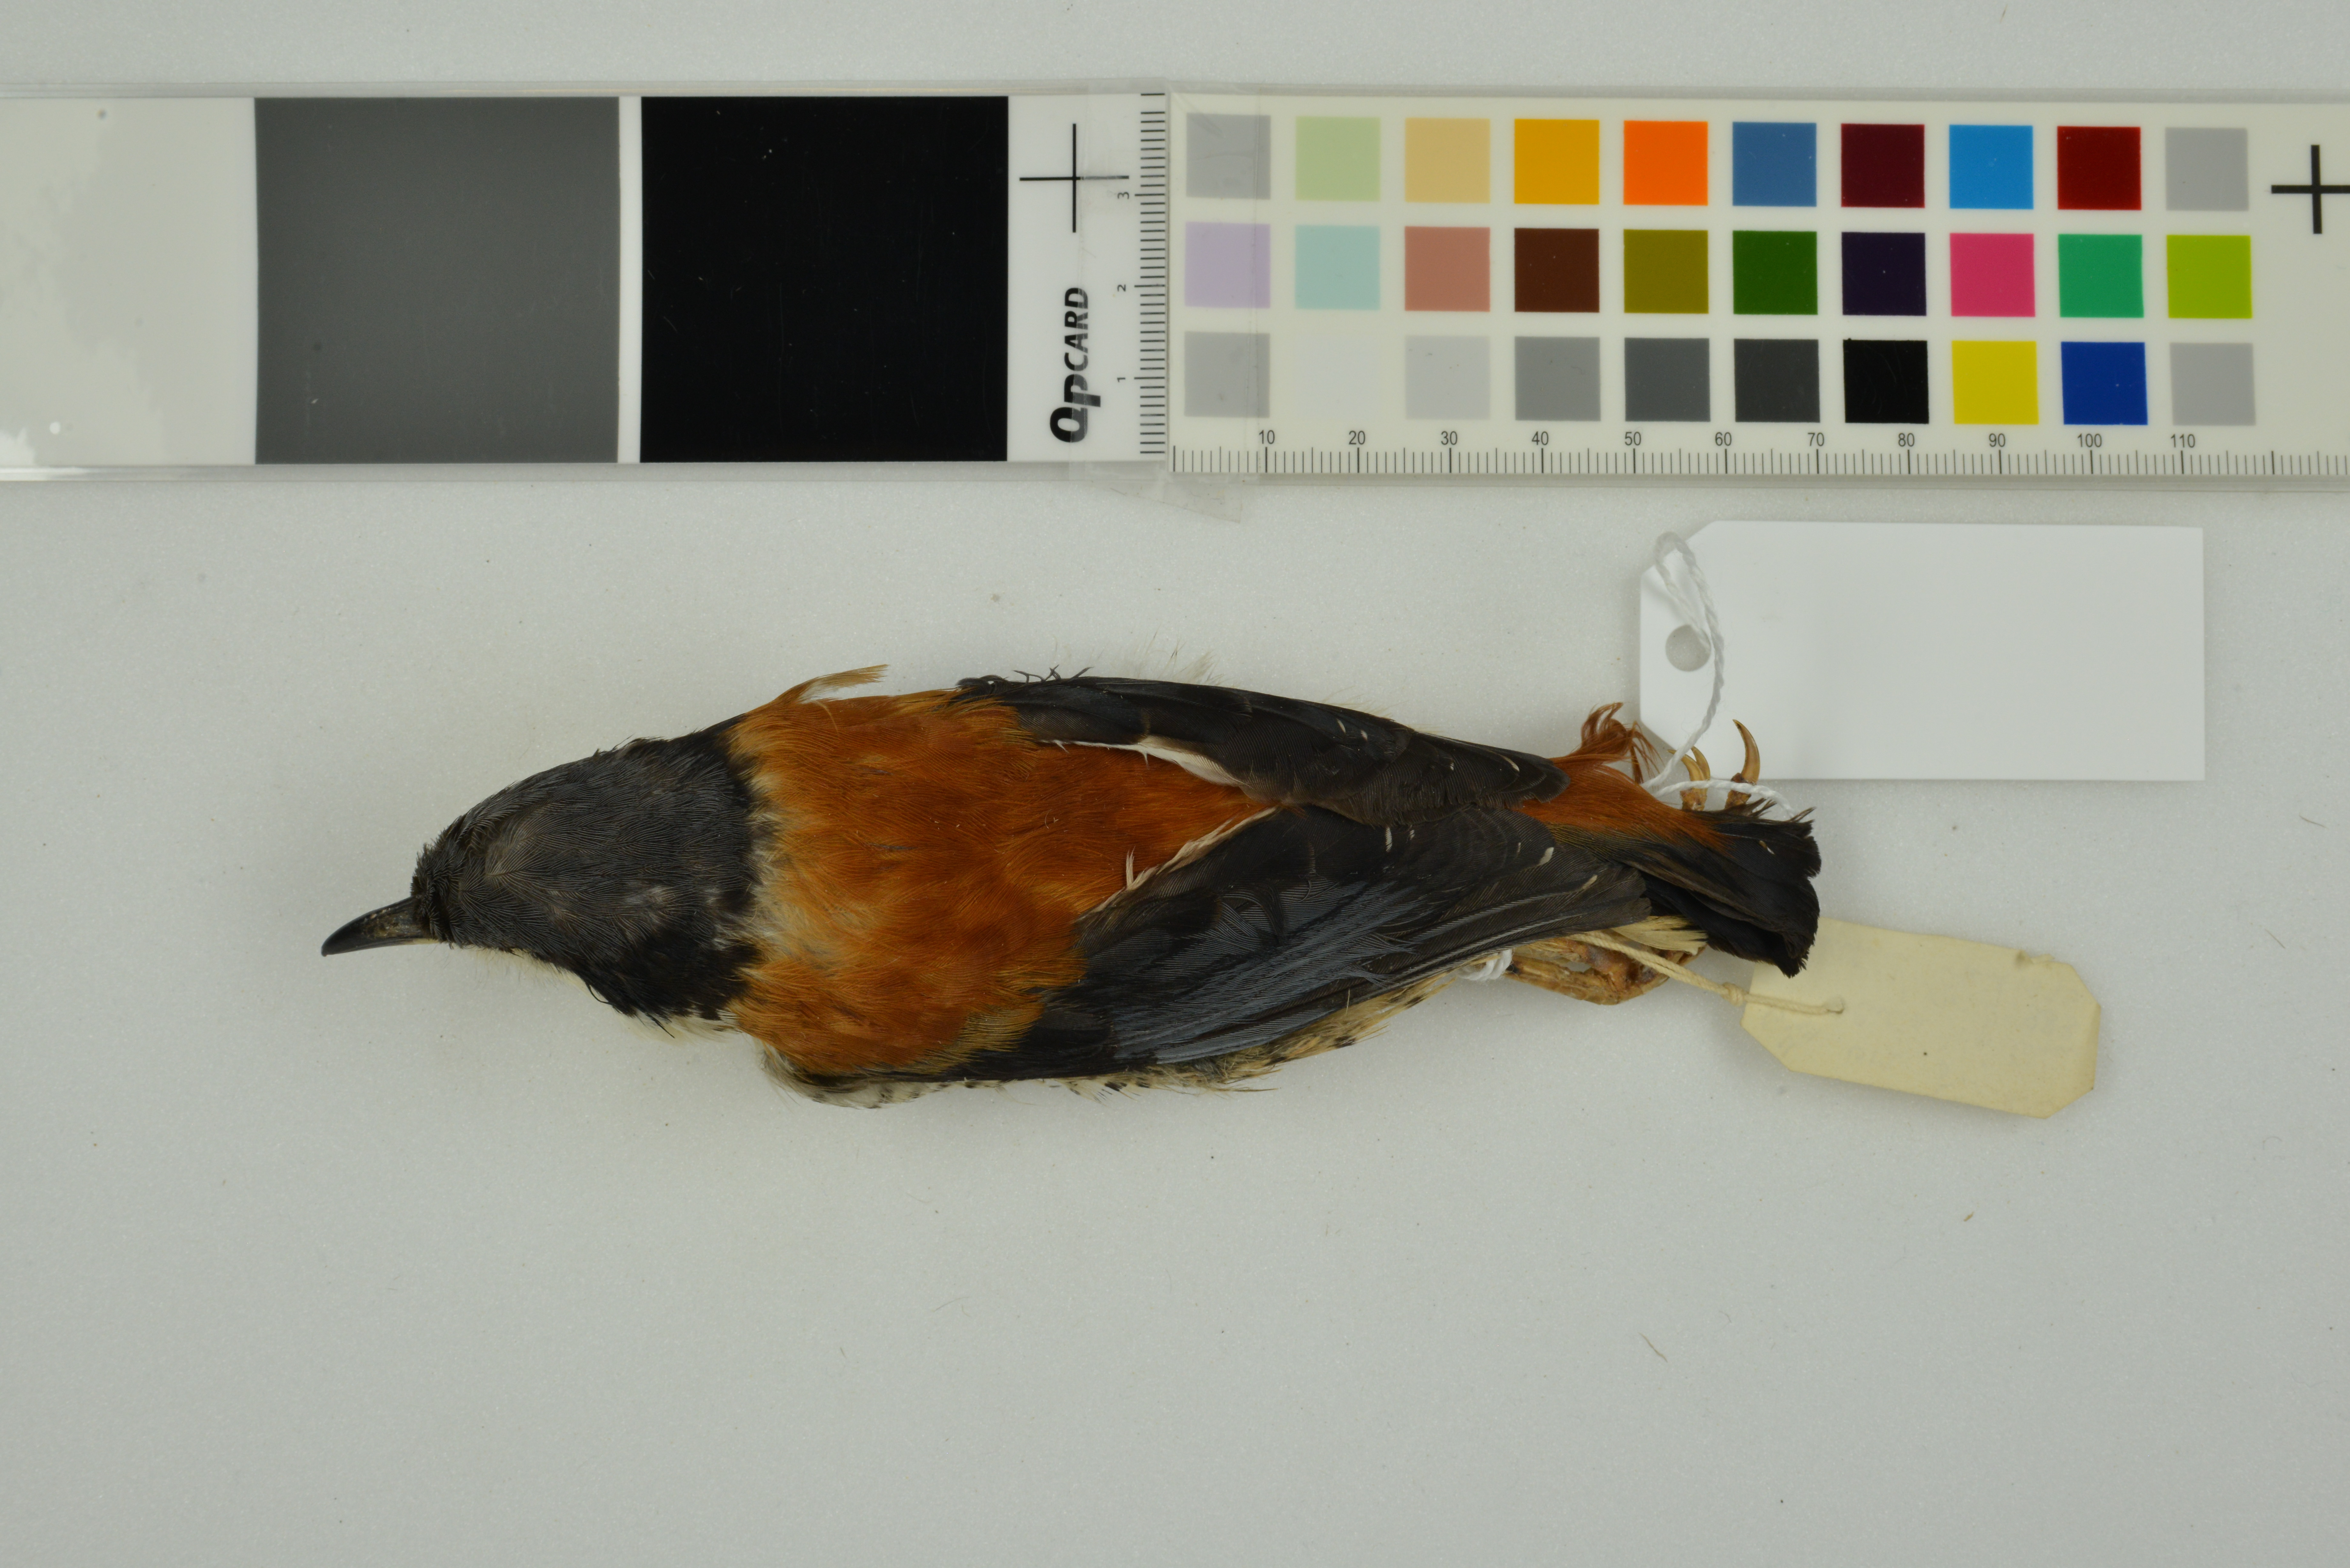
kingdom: Animalia
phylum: Chordata
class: Aves
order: Passeriformes
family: Leiothrichidae
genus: Cutia
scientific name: Cutia nipalensis
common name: Himalayan cutia
